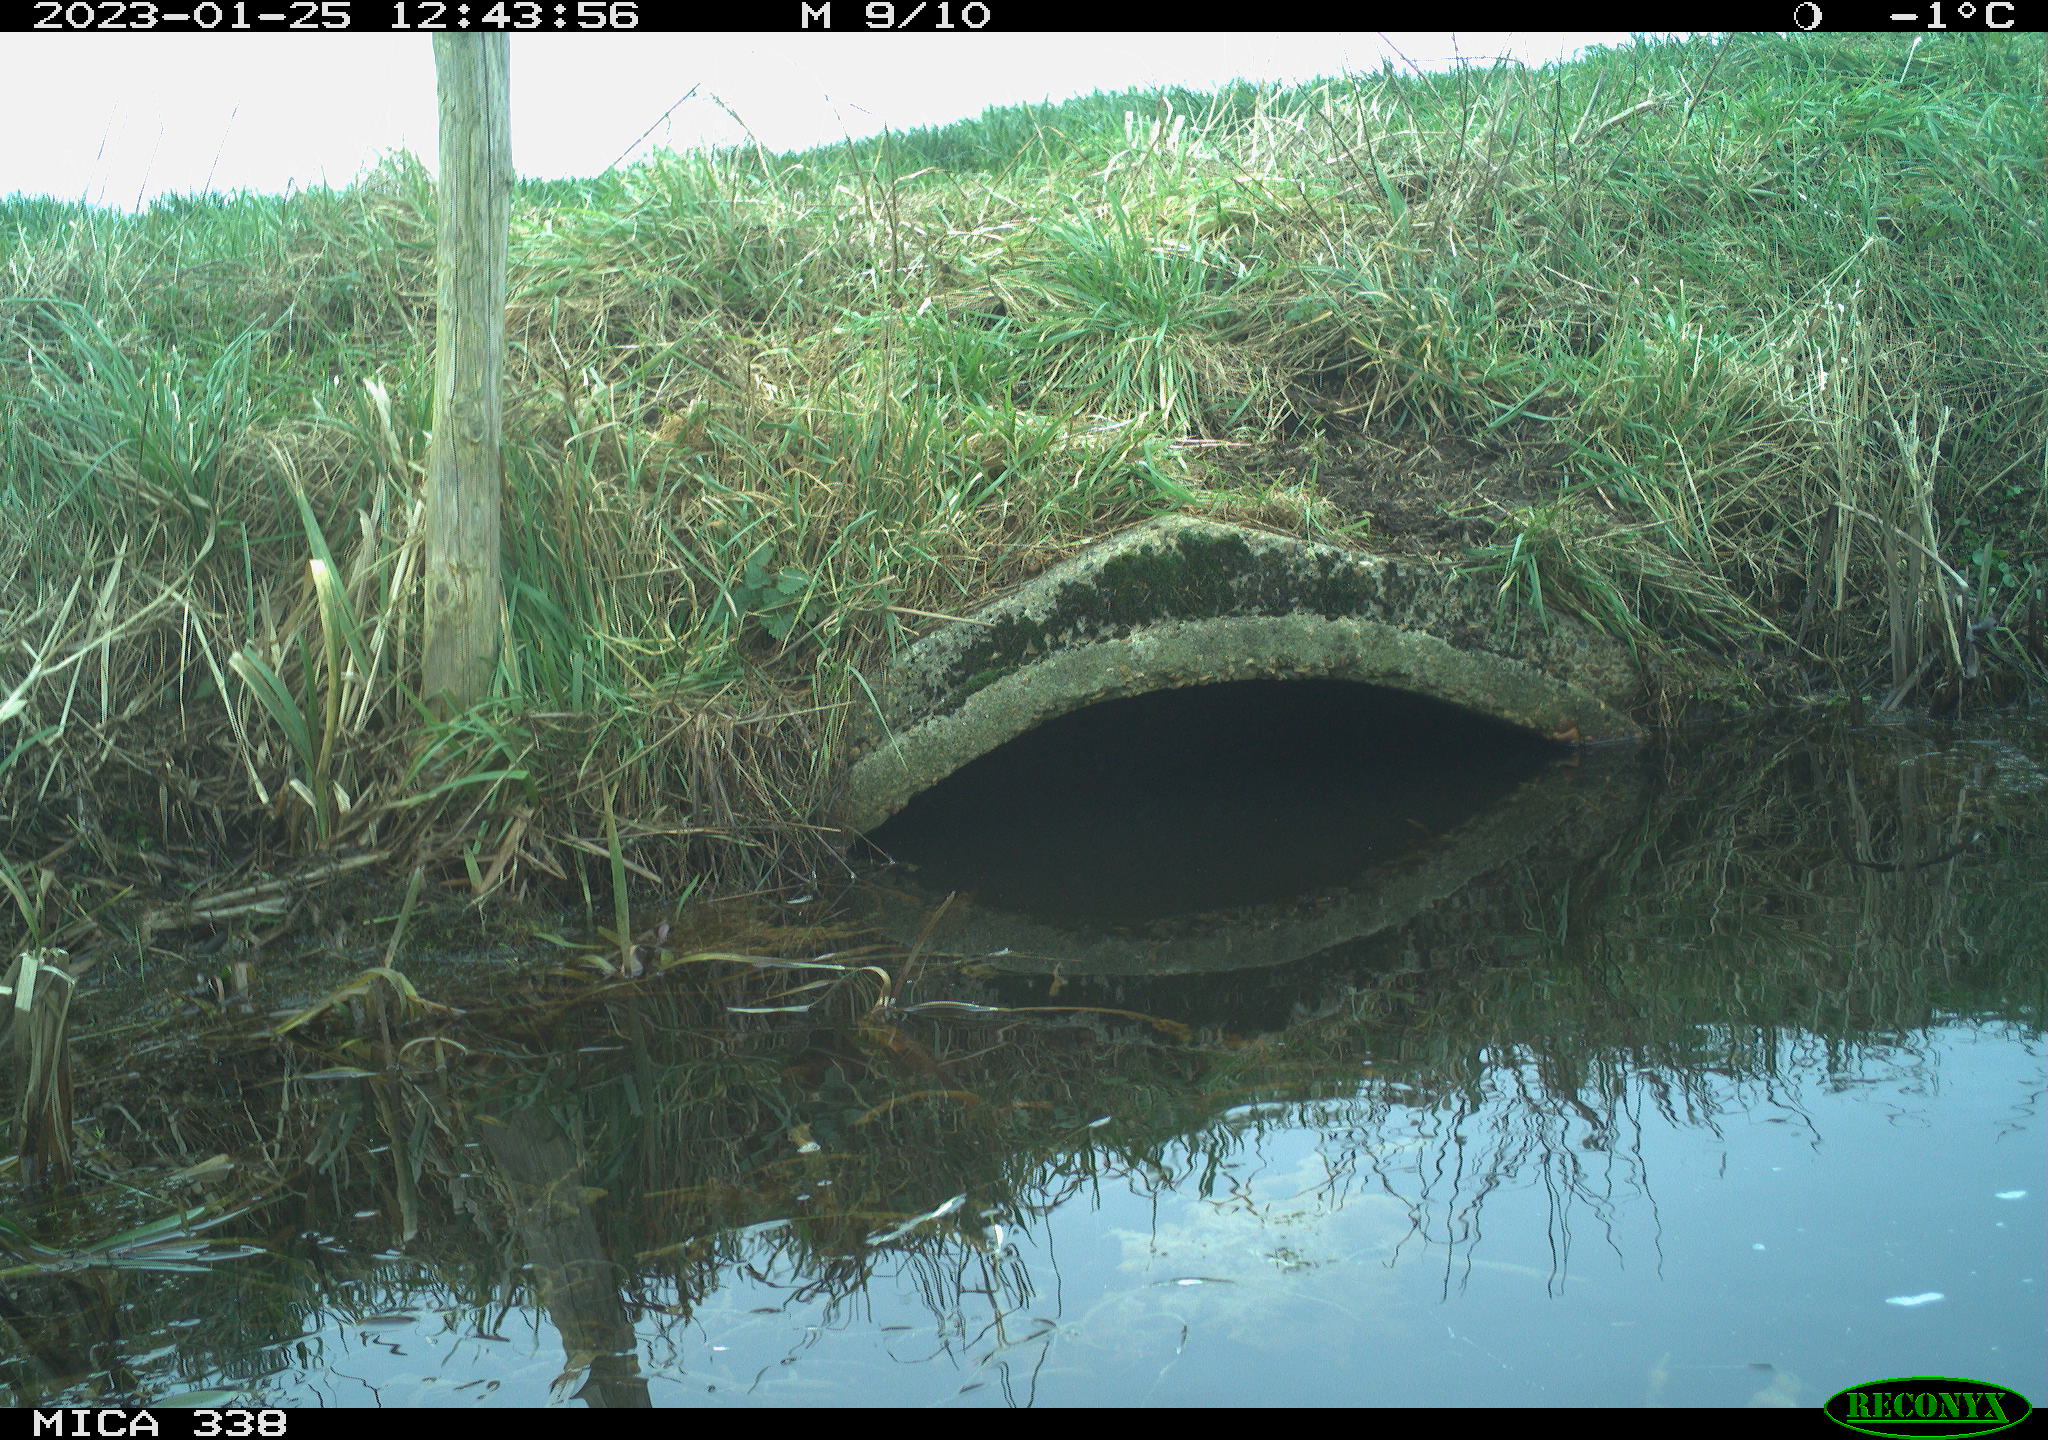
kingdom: Animalia
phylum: Chordata
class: Aves
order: Pelecaniformes
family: Ardeidae
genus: Ardea
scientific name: Ardea cinerea
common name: Grey heron
